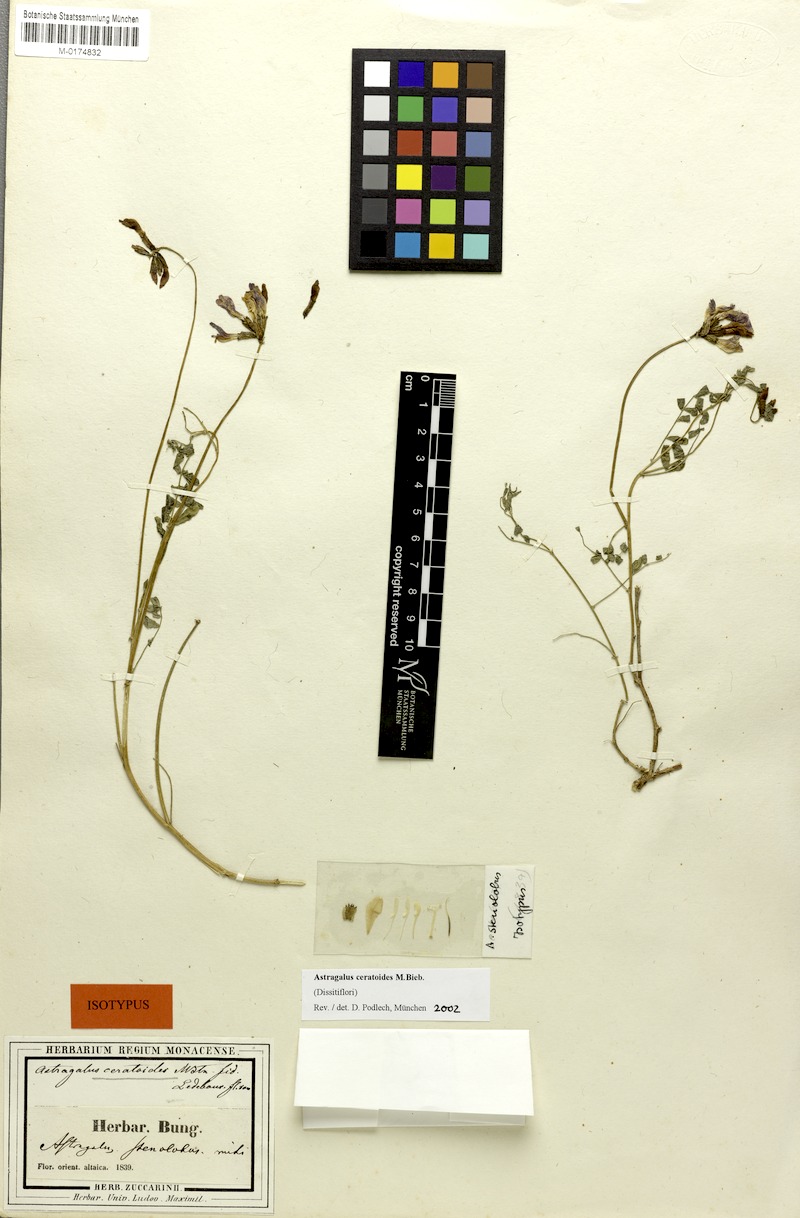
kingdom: Plantae
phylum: Tracheophyta
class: Magnoliopsida
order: Fabales
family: Fabaceae
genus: Astragalus
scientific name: Astragalus ceratoides
